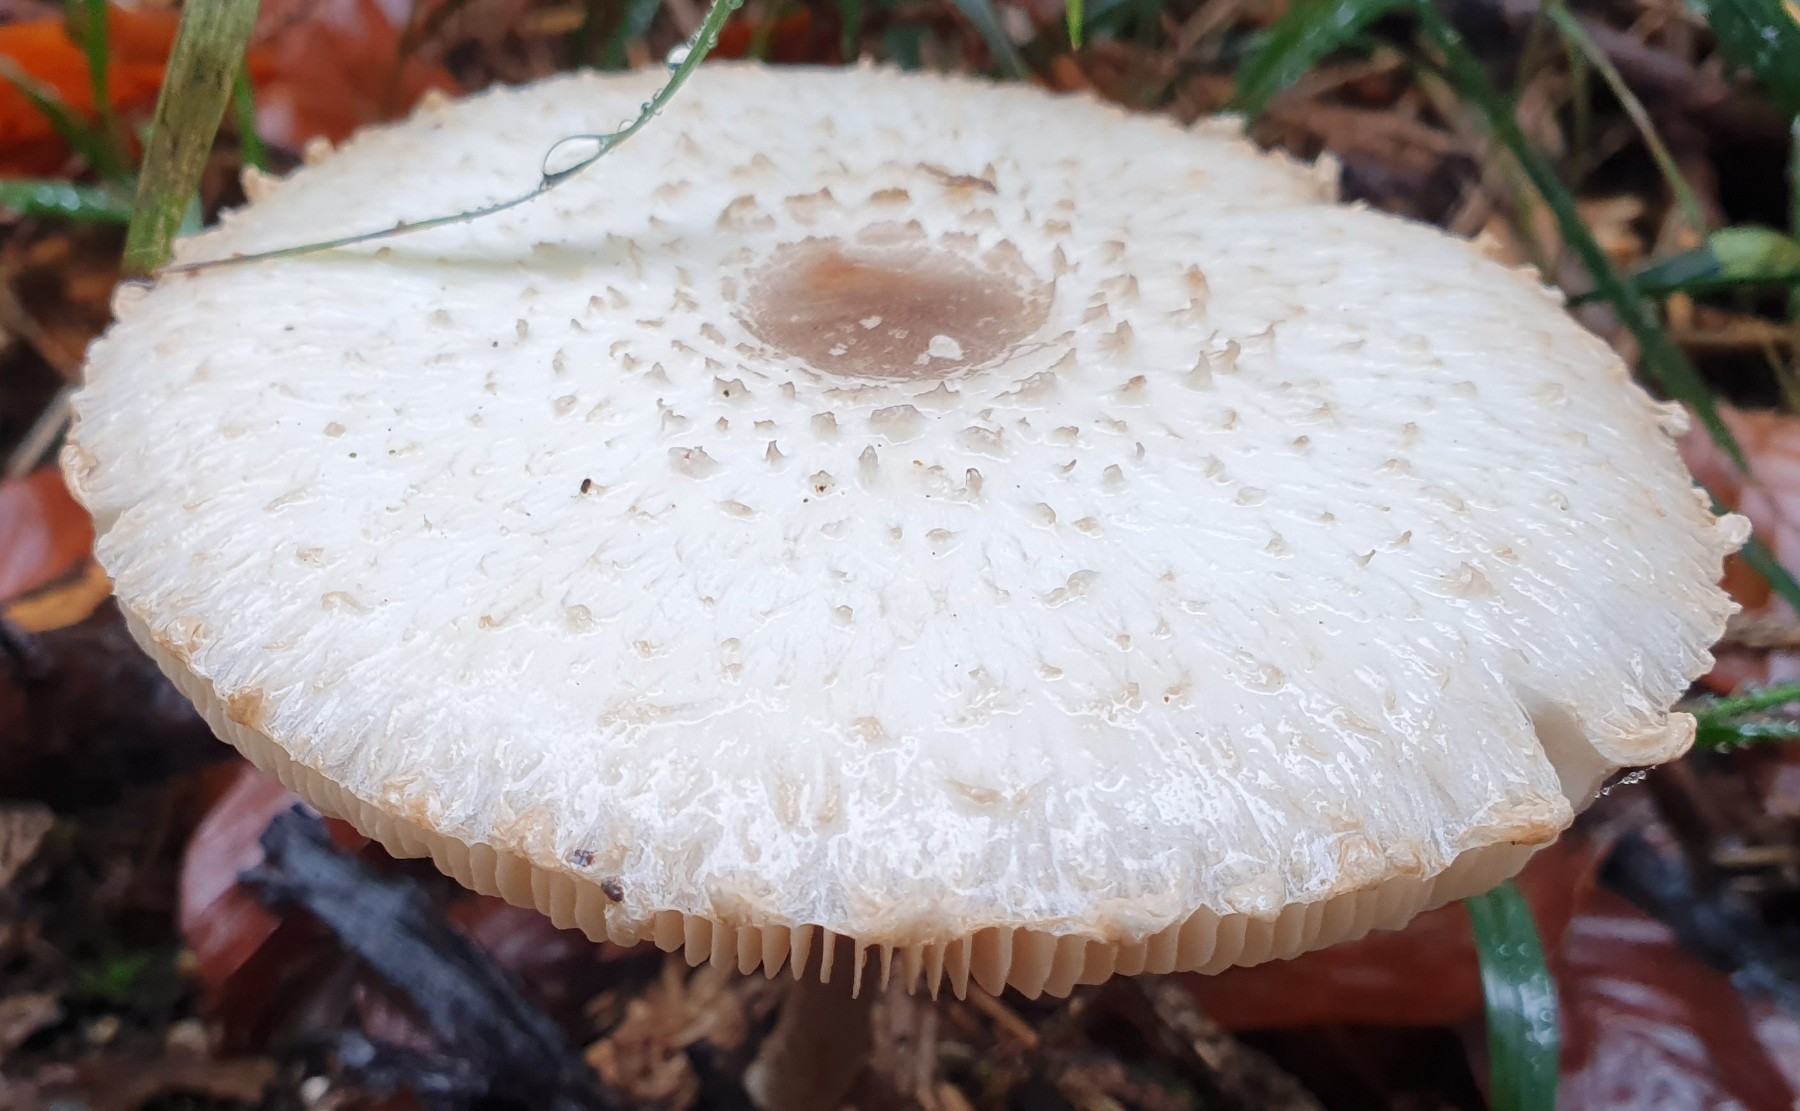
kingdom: Fungi
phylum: Basidiomycota
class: Agaricomycetes
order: Agaricales
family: Agaricaceae
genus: Leucoagaricus
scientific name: Leucoagaricus nympharum
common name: gran-silkehat
